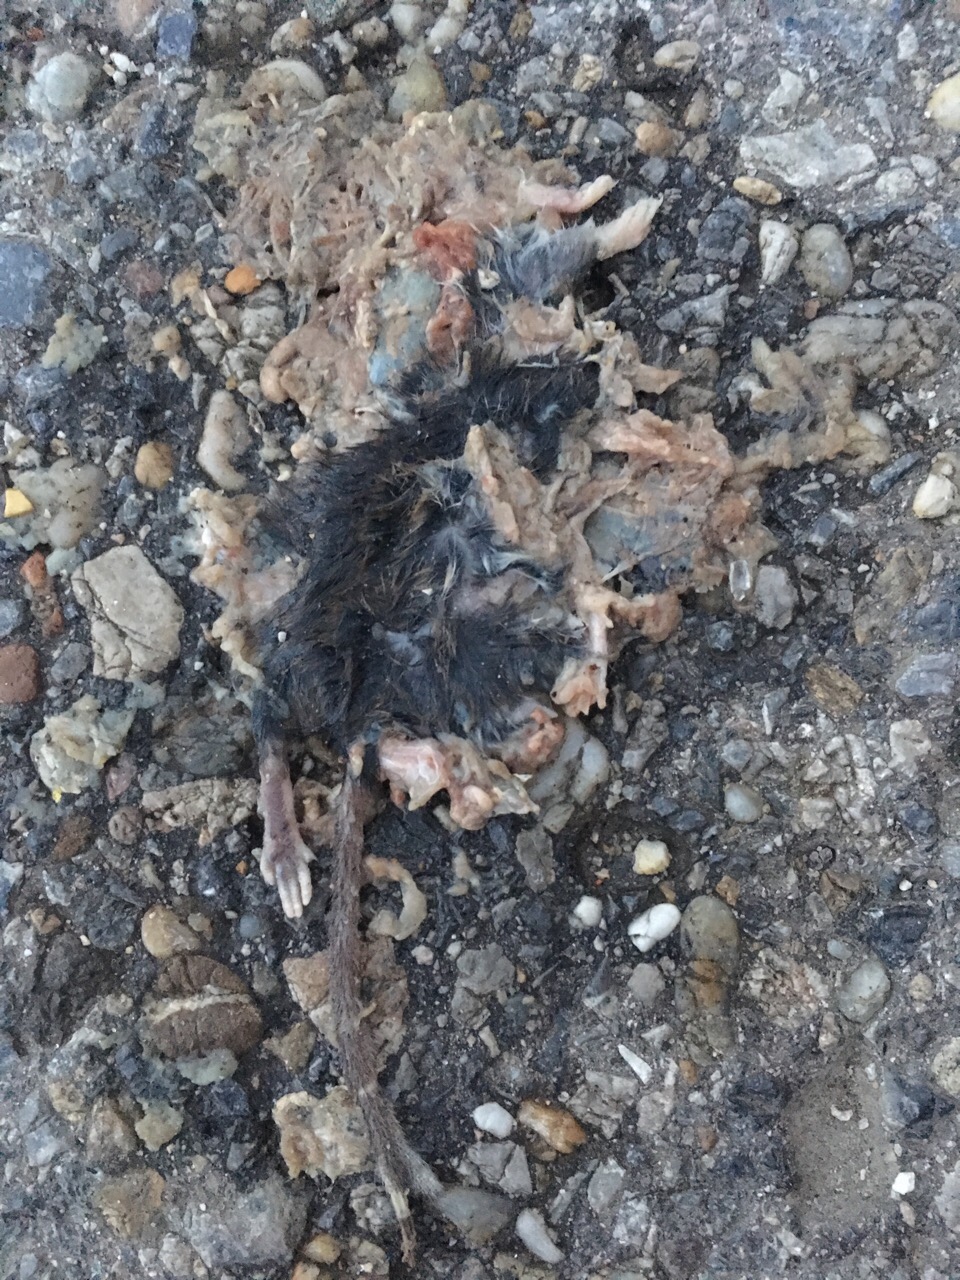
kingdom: Animalia
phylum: Chordata
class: Mammalia
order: Rodentia
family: Muridae
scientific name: Muridae
